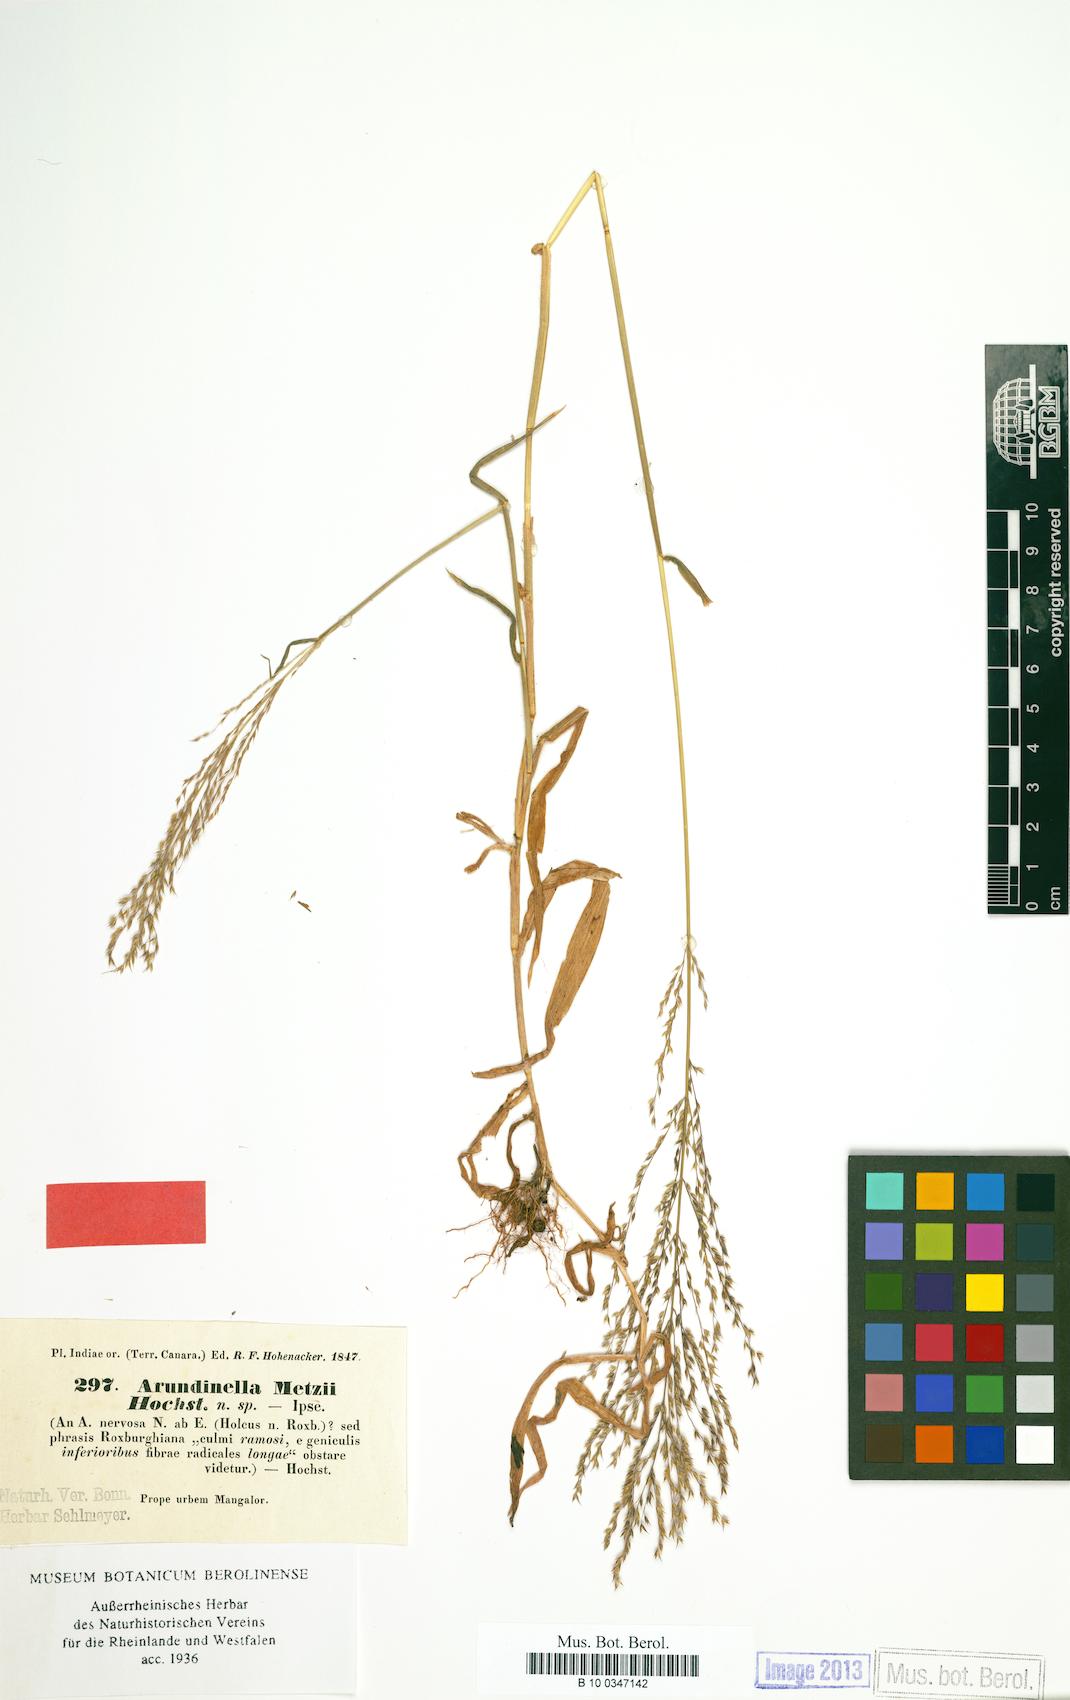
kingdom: Plantae
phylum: Tracheophyta
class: Liliopsida
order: Poales
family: Poaceae
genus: Arundinella
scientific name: Arundinella metzii
